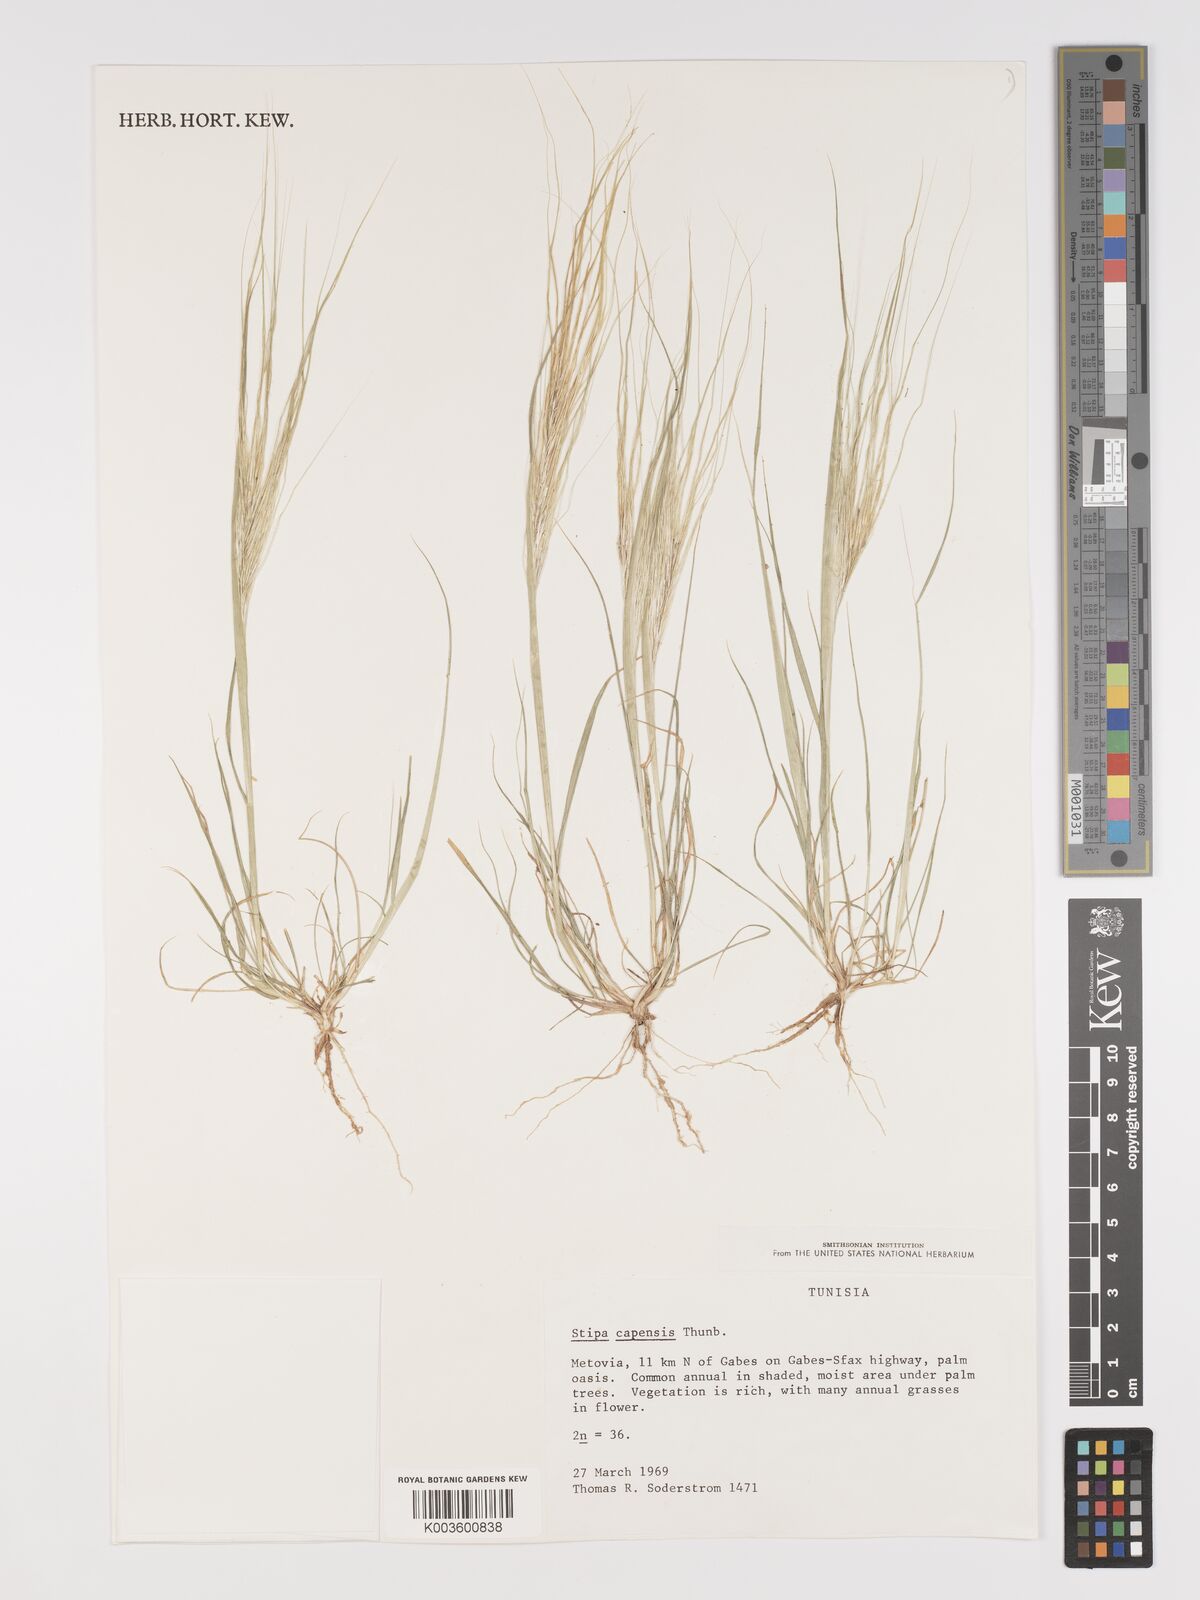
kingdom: Plantae
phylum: Tracheophyta
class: Liliopsida
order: Poales
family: Poaceae
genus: Stipellula
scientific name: Stipellula capensis
